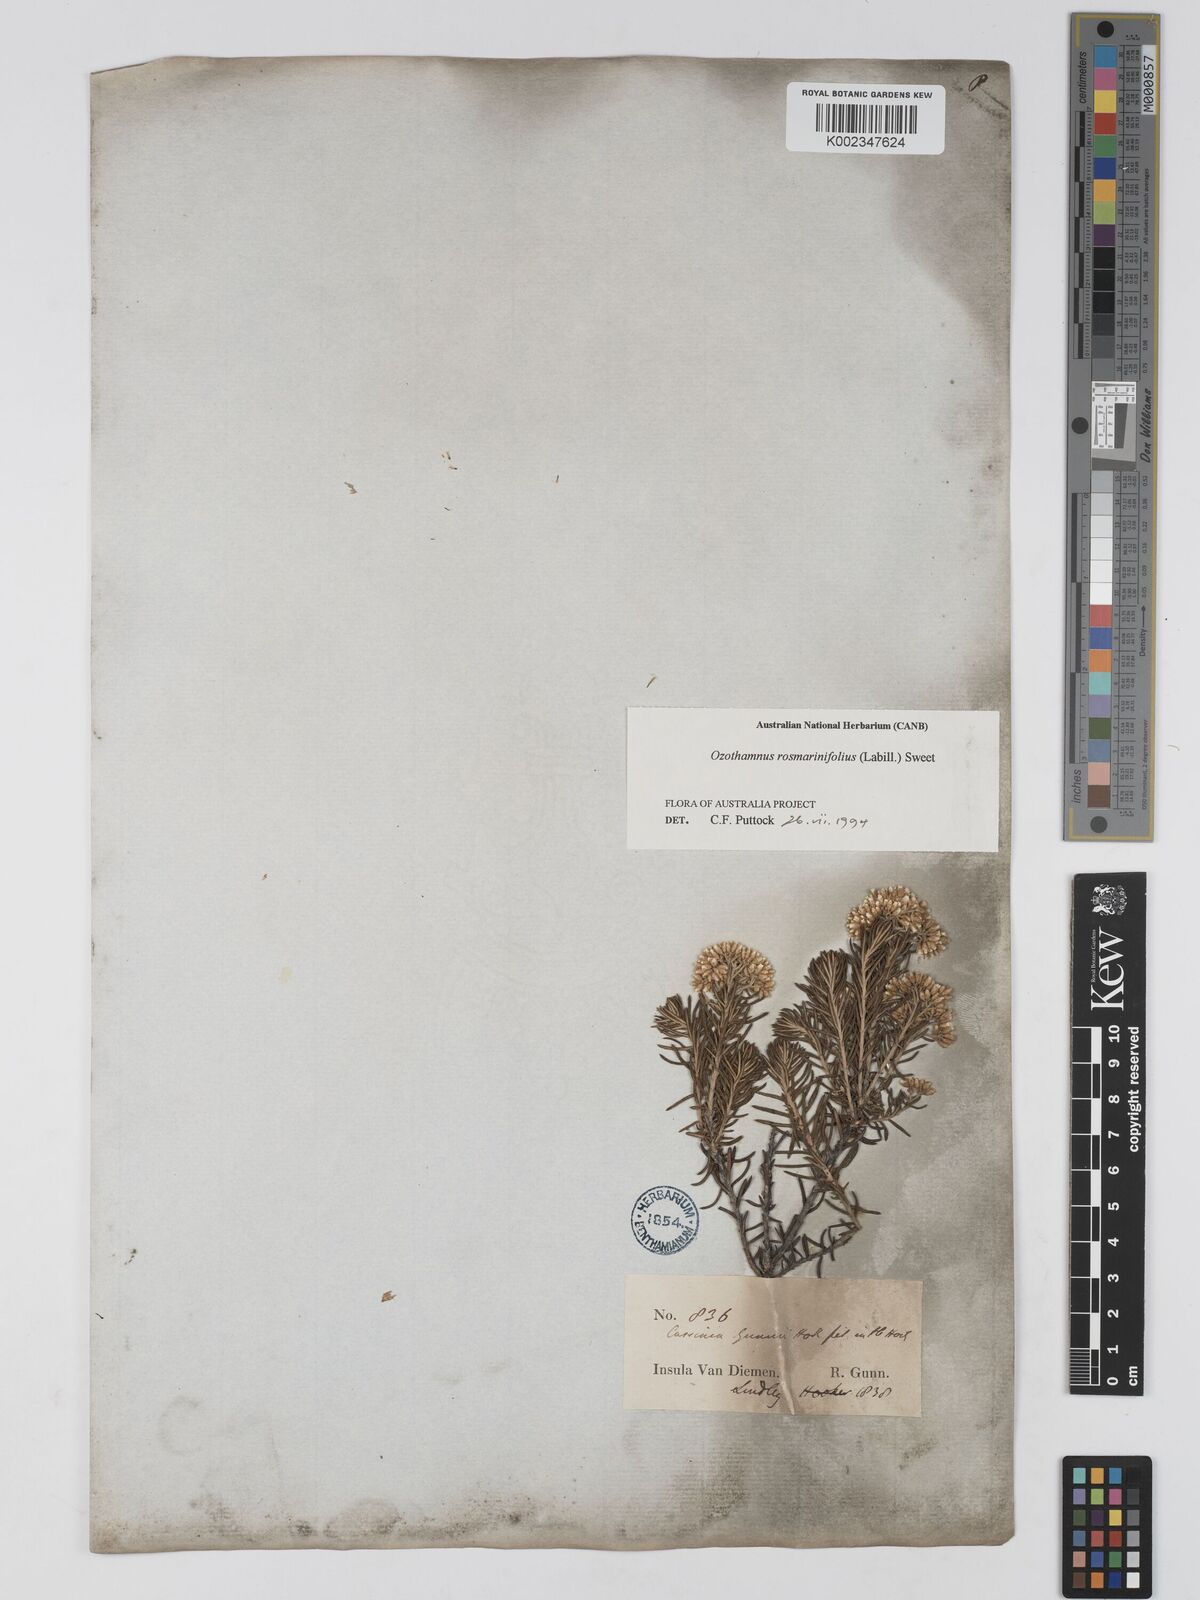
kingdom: Plantae
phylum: Tracheophyta
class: Magnoliopsida
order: Asterales
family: Asteraceae
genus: Ozothamnus
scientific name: Ozothamnus rosmarinifolius
